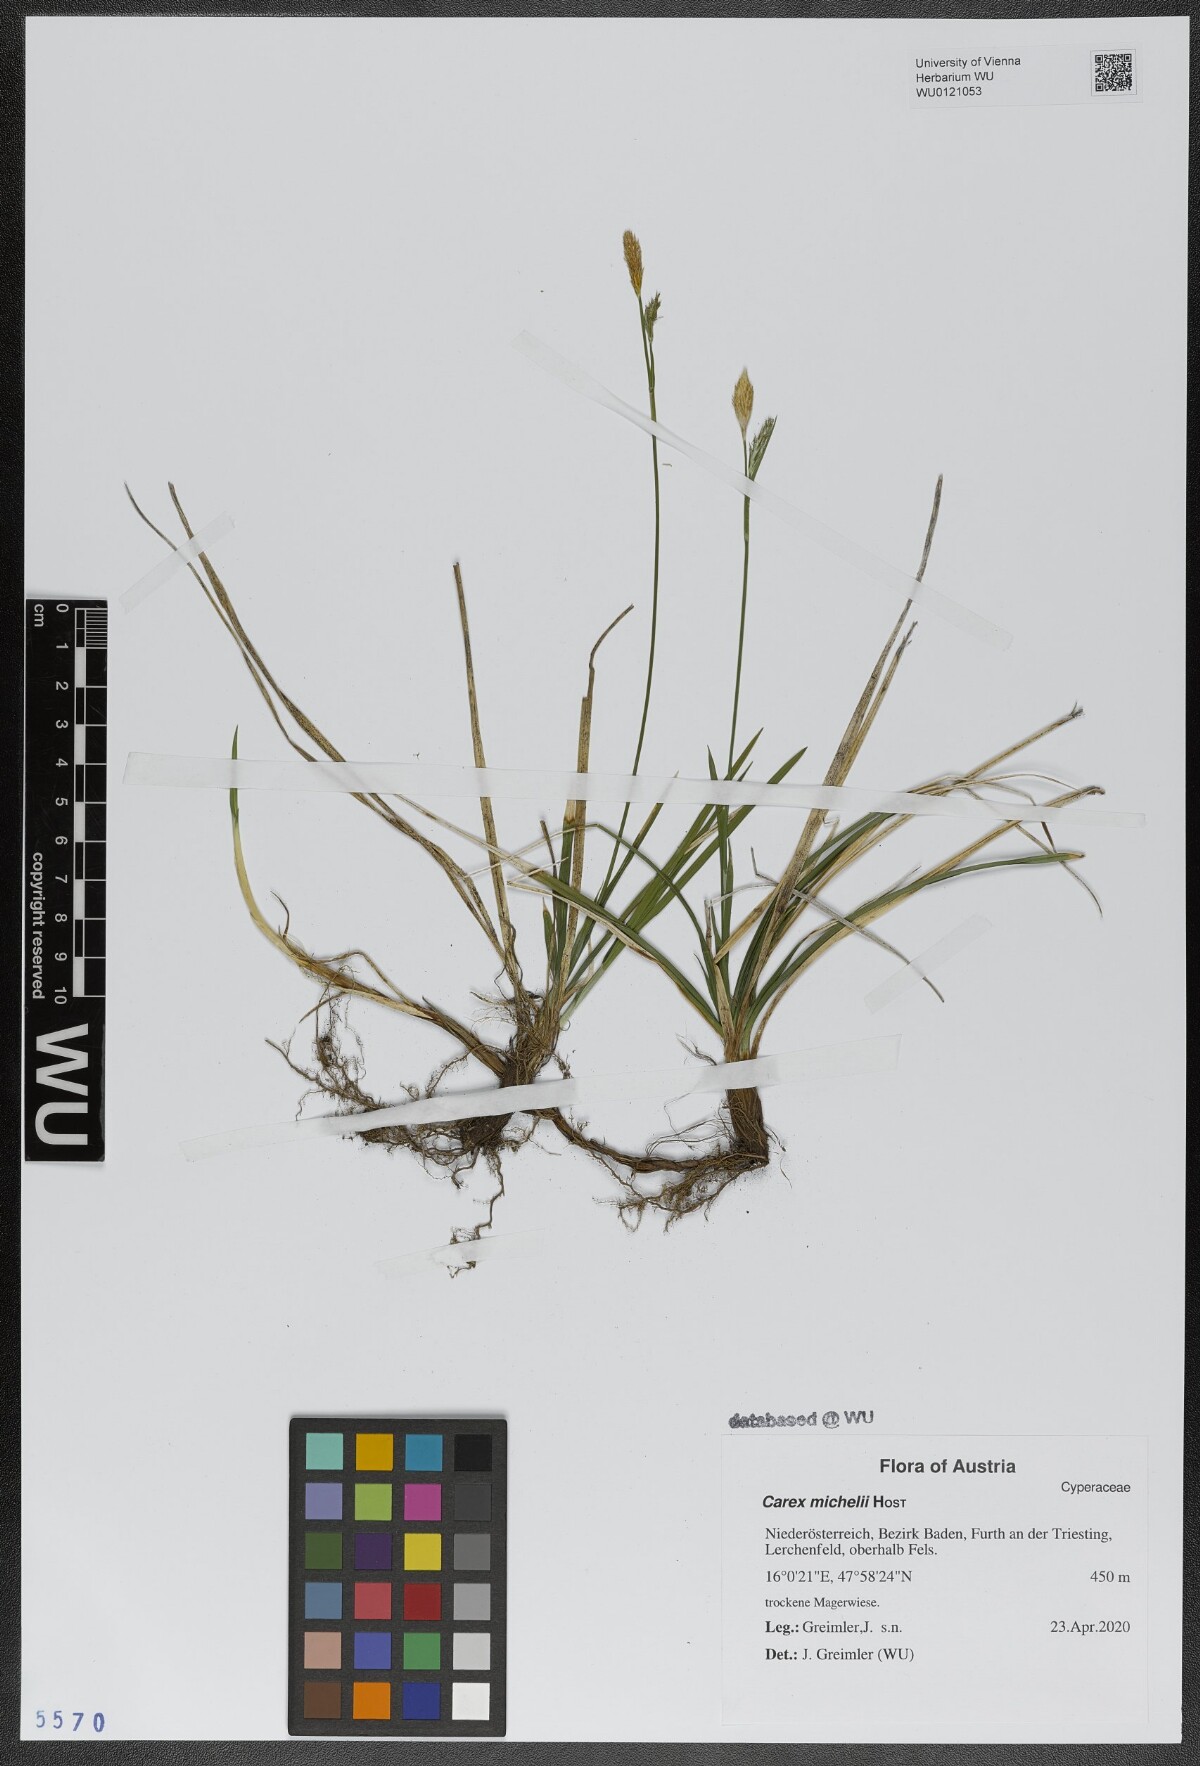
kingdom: Plantae
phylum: Tracheophyta
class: Liliopsida
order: Poales
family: Cyperaceae
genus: Carex
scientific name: Carex michelii
